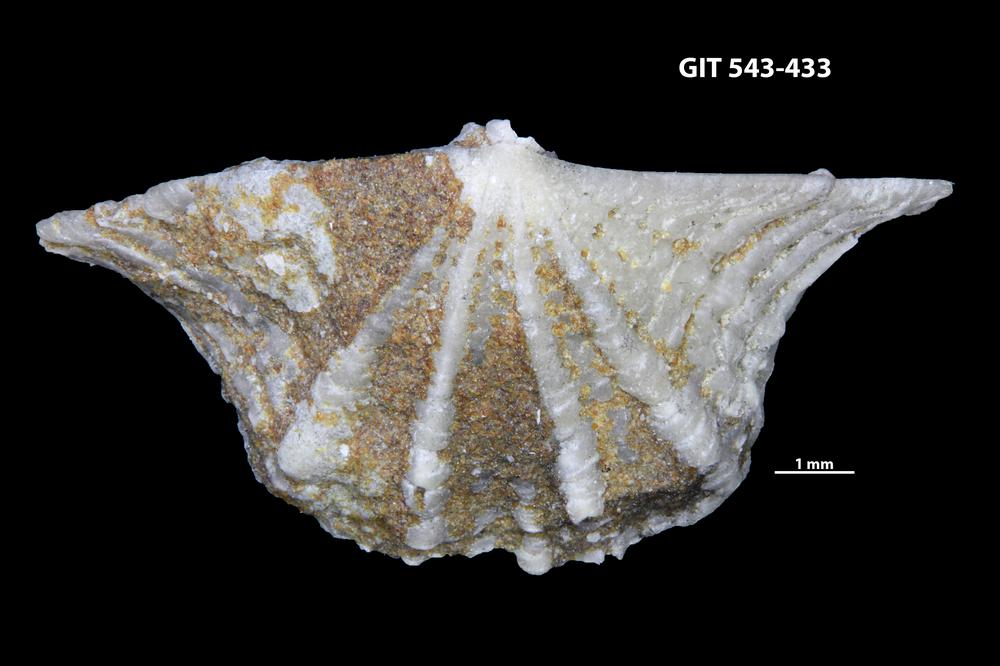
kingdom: Animalia
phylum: Brachiopoda
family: Kullervoidae
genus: Kullervo
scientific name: Kullervo lacunata
